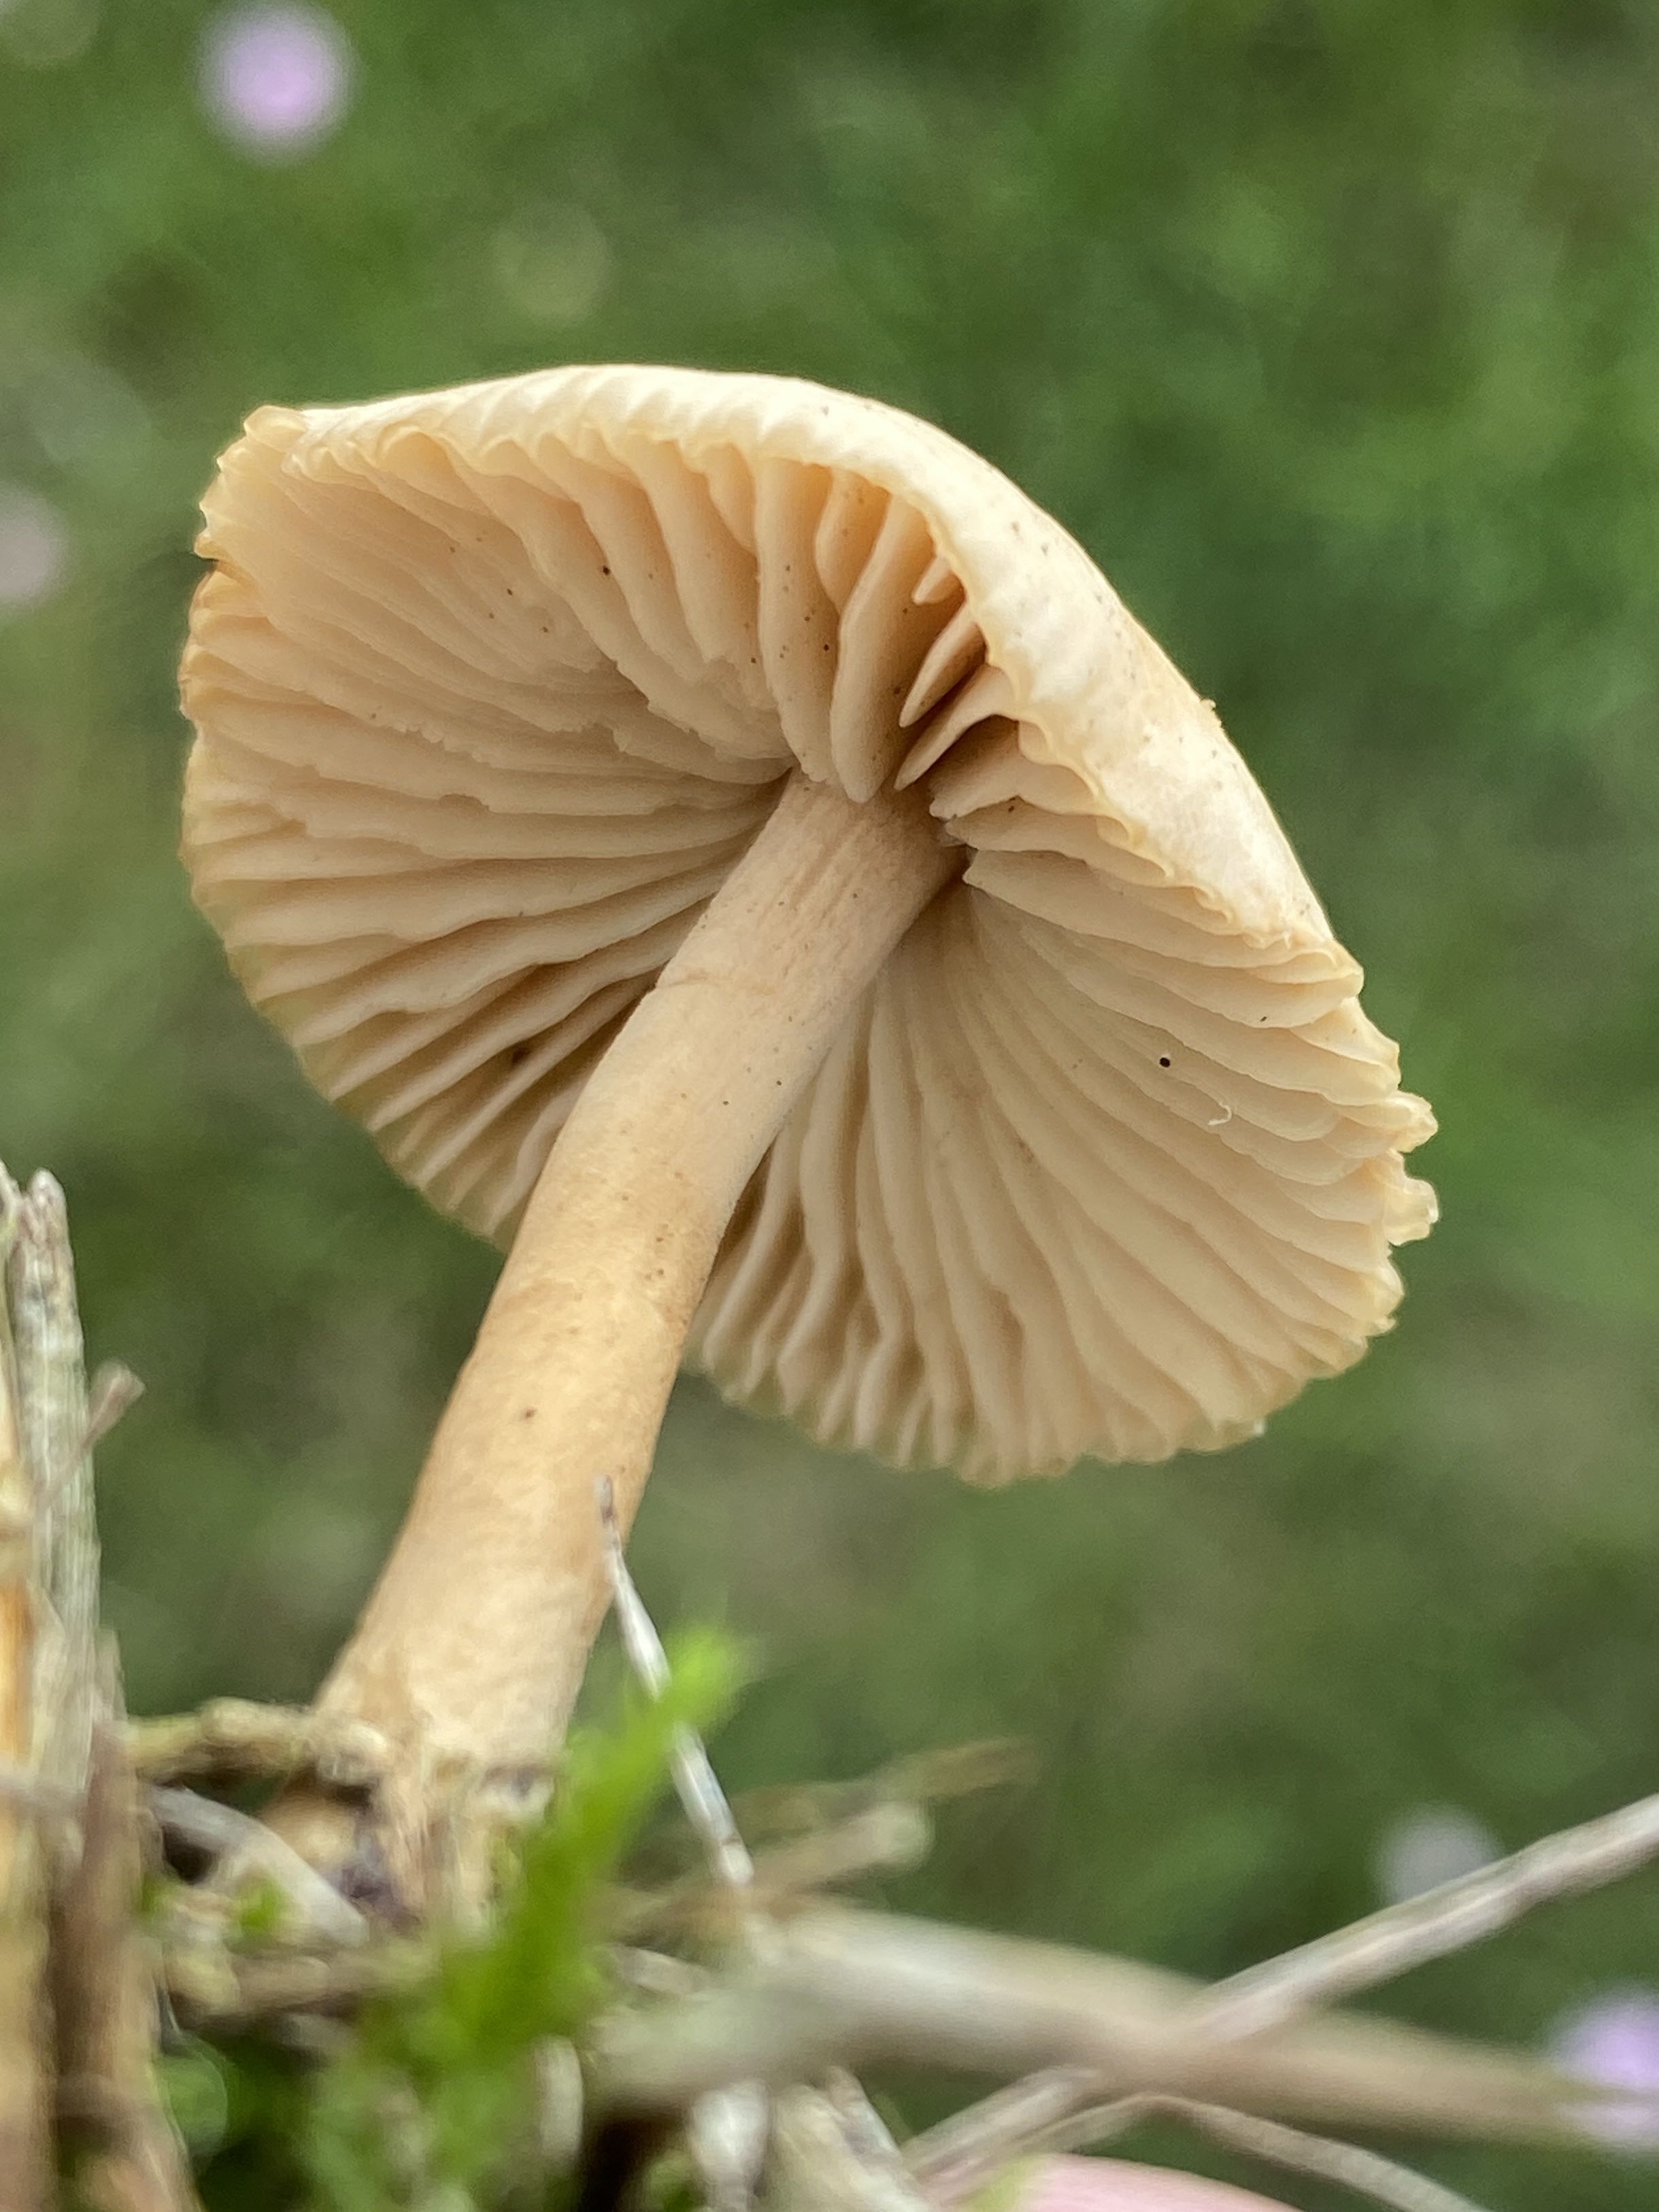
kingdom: Fungi
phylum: Basidiomycota
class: Agaricomycetes
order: Agaricales
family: Marasmiaceae
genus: Marasmius
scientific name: Marasmius oreades
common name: elledans-bruskhat
